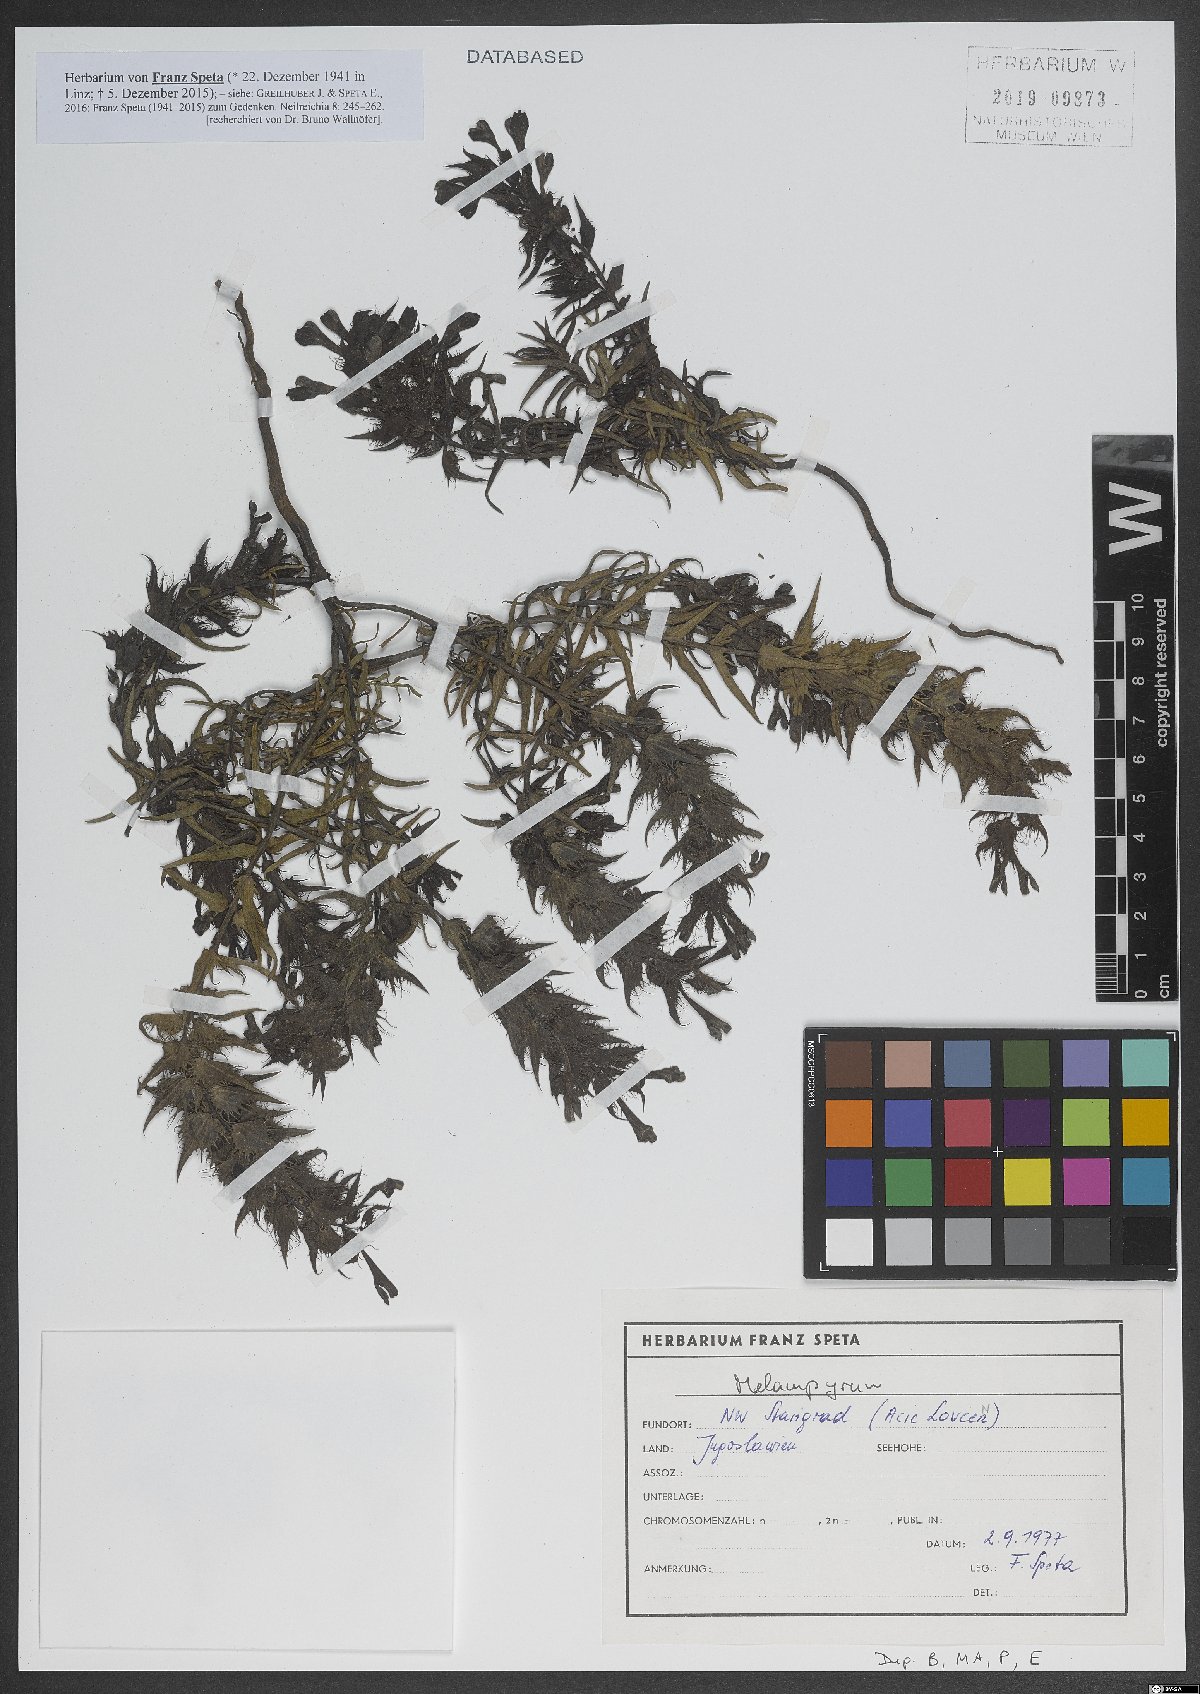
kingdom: Plantae
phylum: Tracheophyta
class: Magnoliopsida
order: Lamiales
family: Orobanchaceae
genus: Melampyrum
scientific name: Melampyrum
